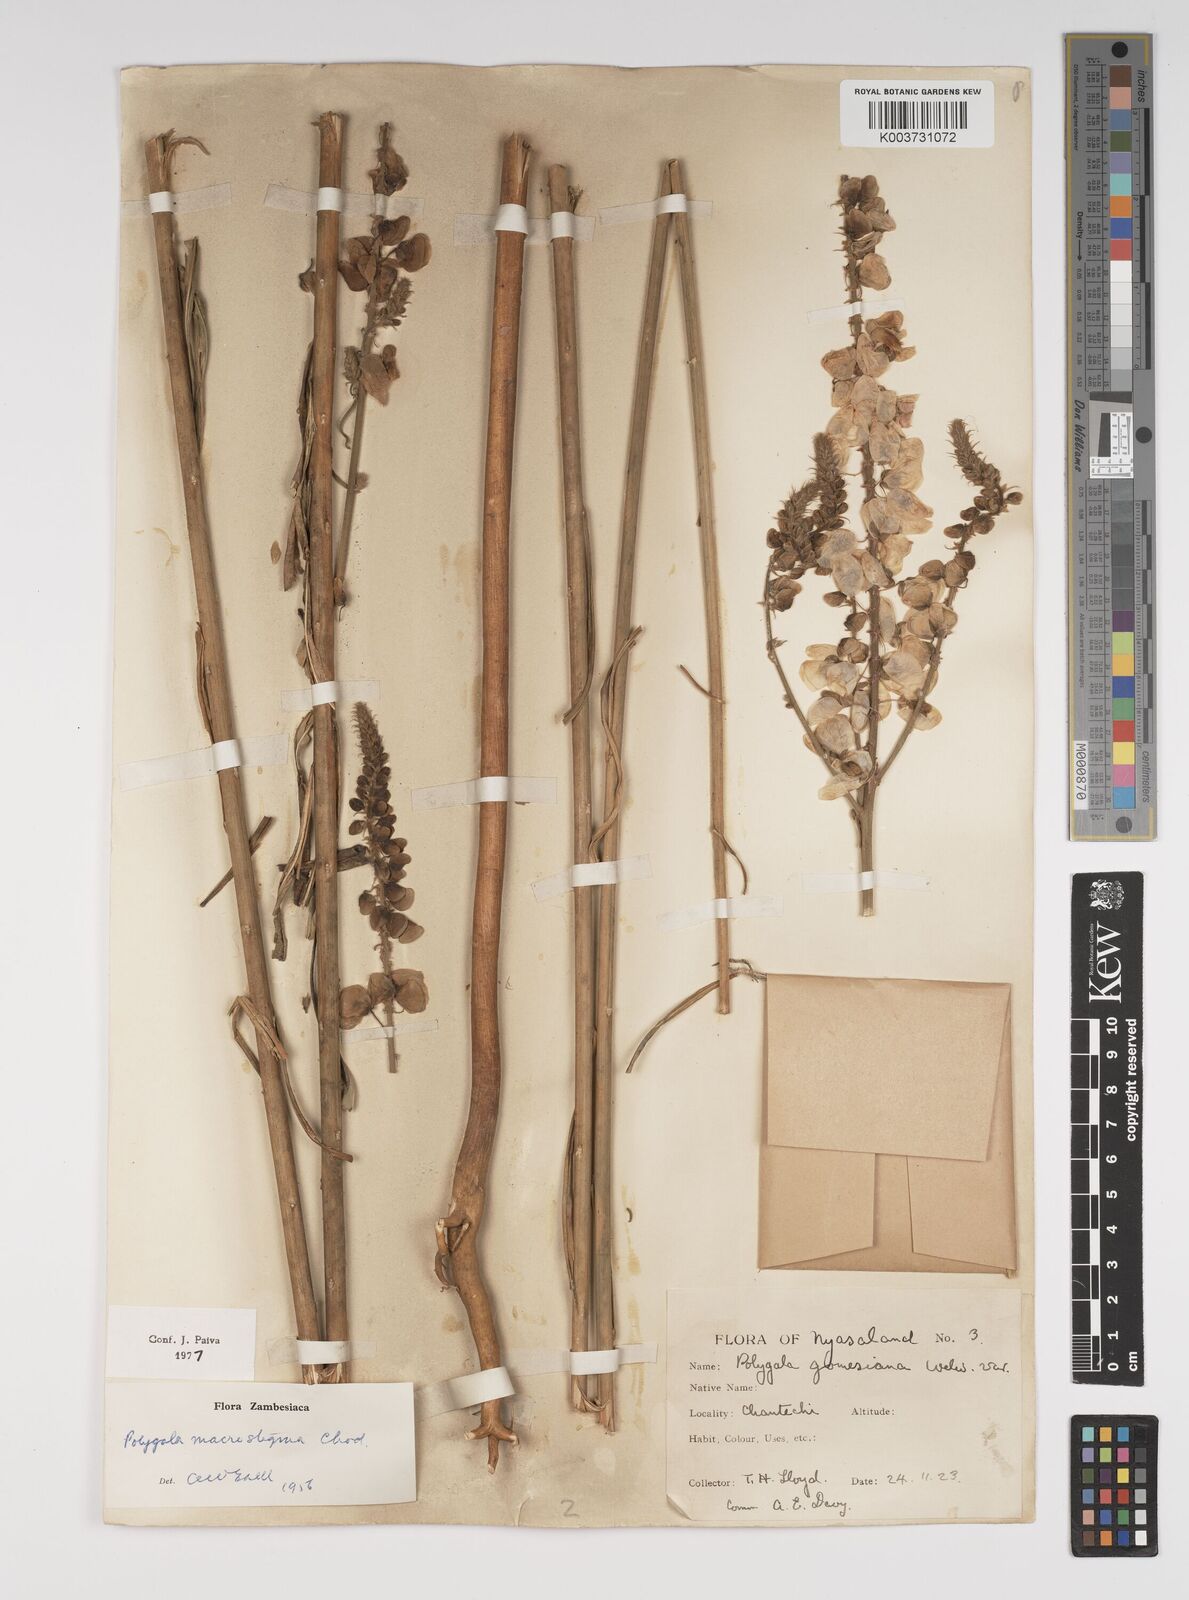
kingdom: Plantae
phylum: Tracheophyta
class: Magnoliopsida
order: Fabales
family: Polygalaceae
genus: Polygala
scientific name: Polygala macrostigma
